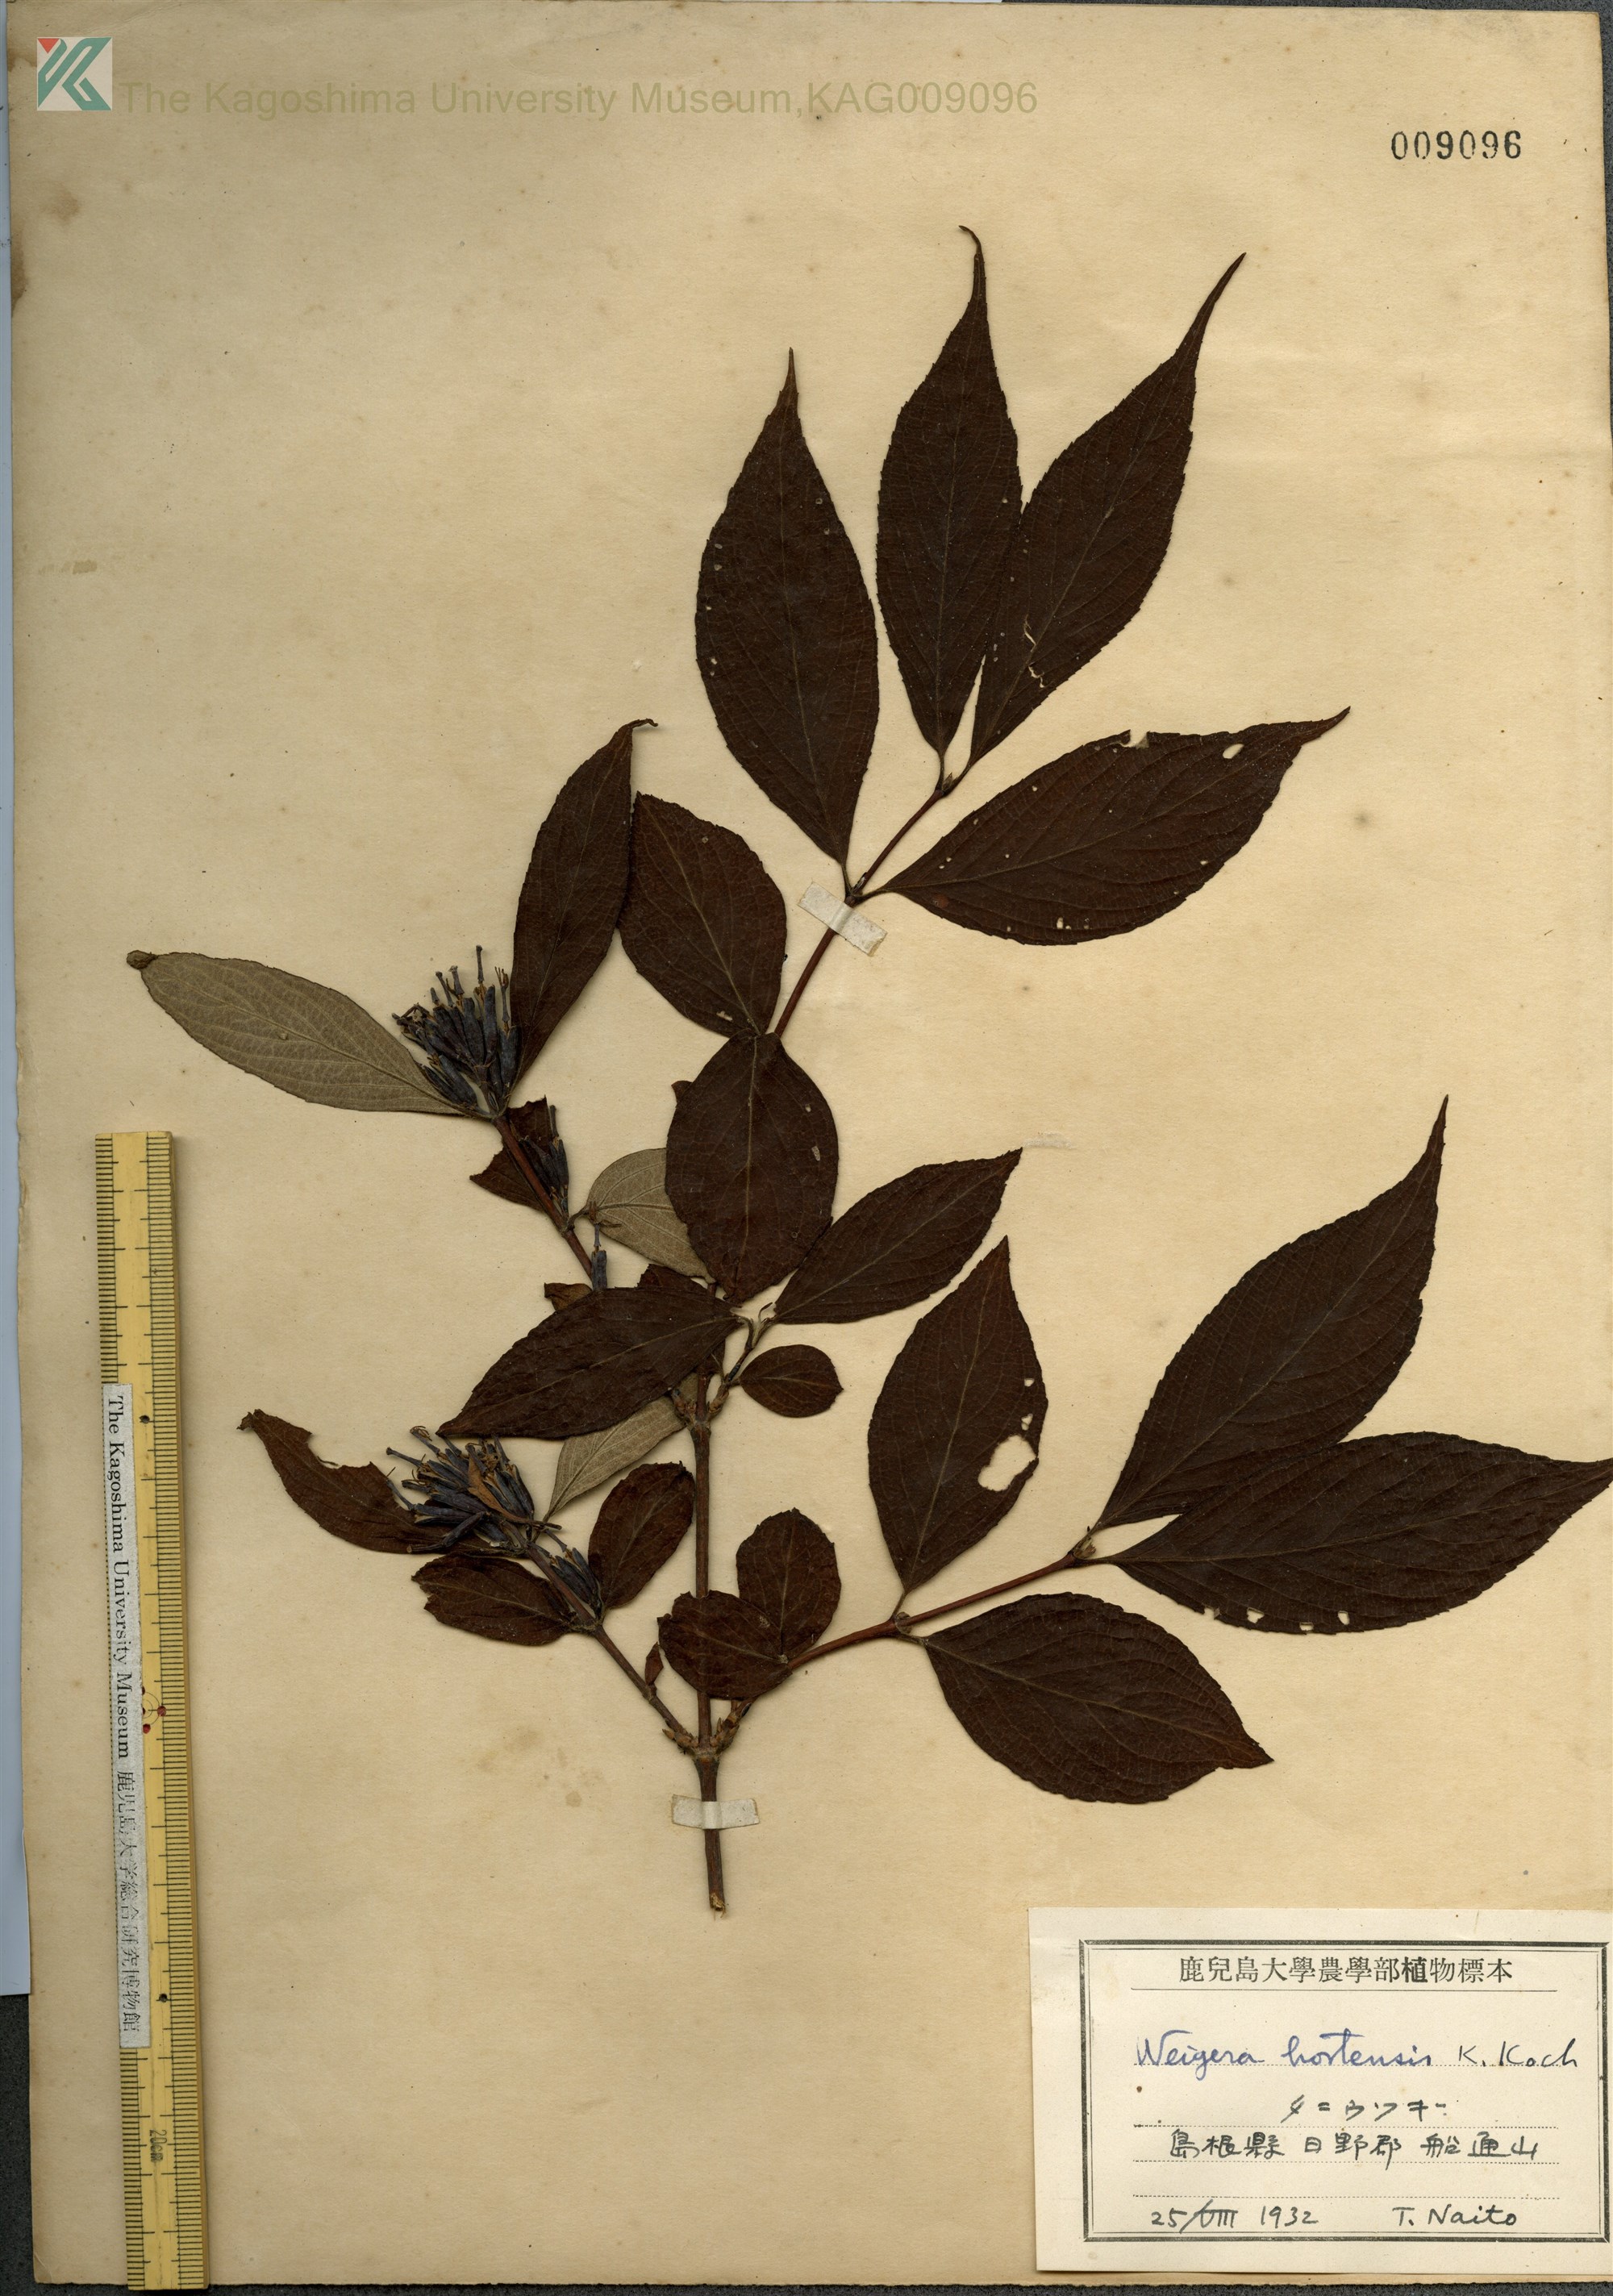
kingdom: Plantae
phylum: Tracheophyta
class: Magnoliopsida
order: Dipsacales
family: Caprifoliaceae
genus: Weigela
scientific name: Weigela hortensis
